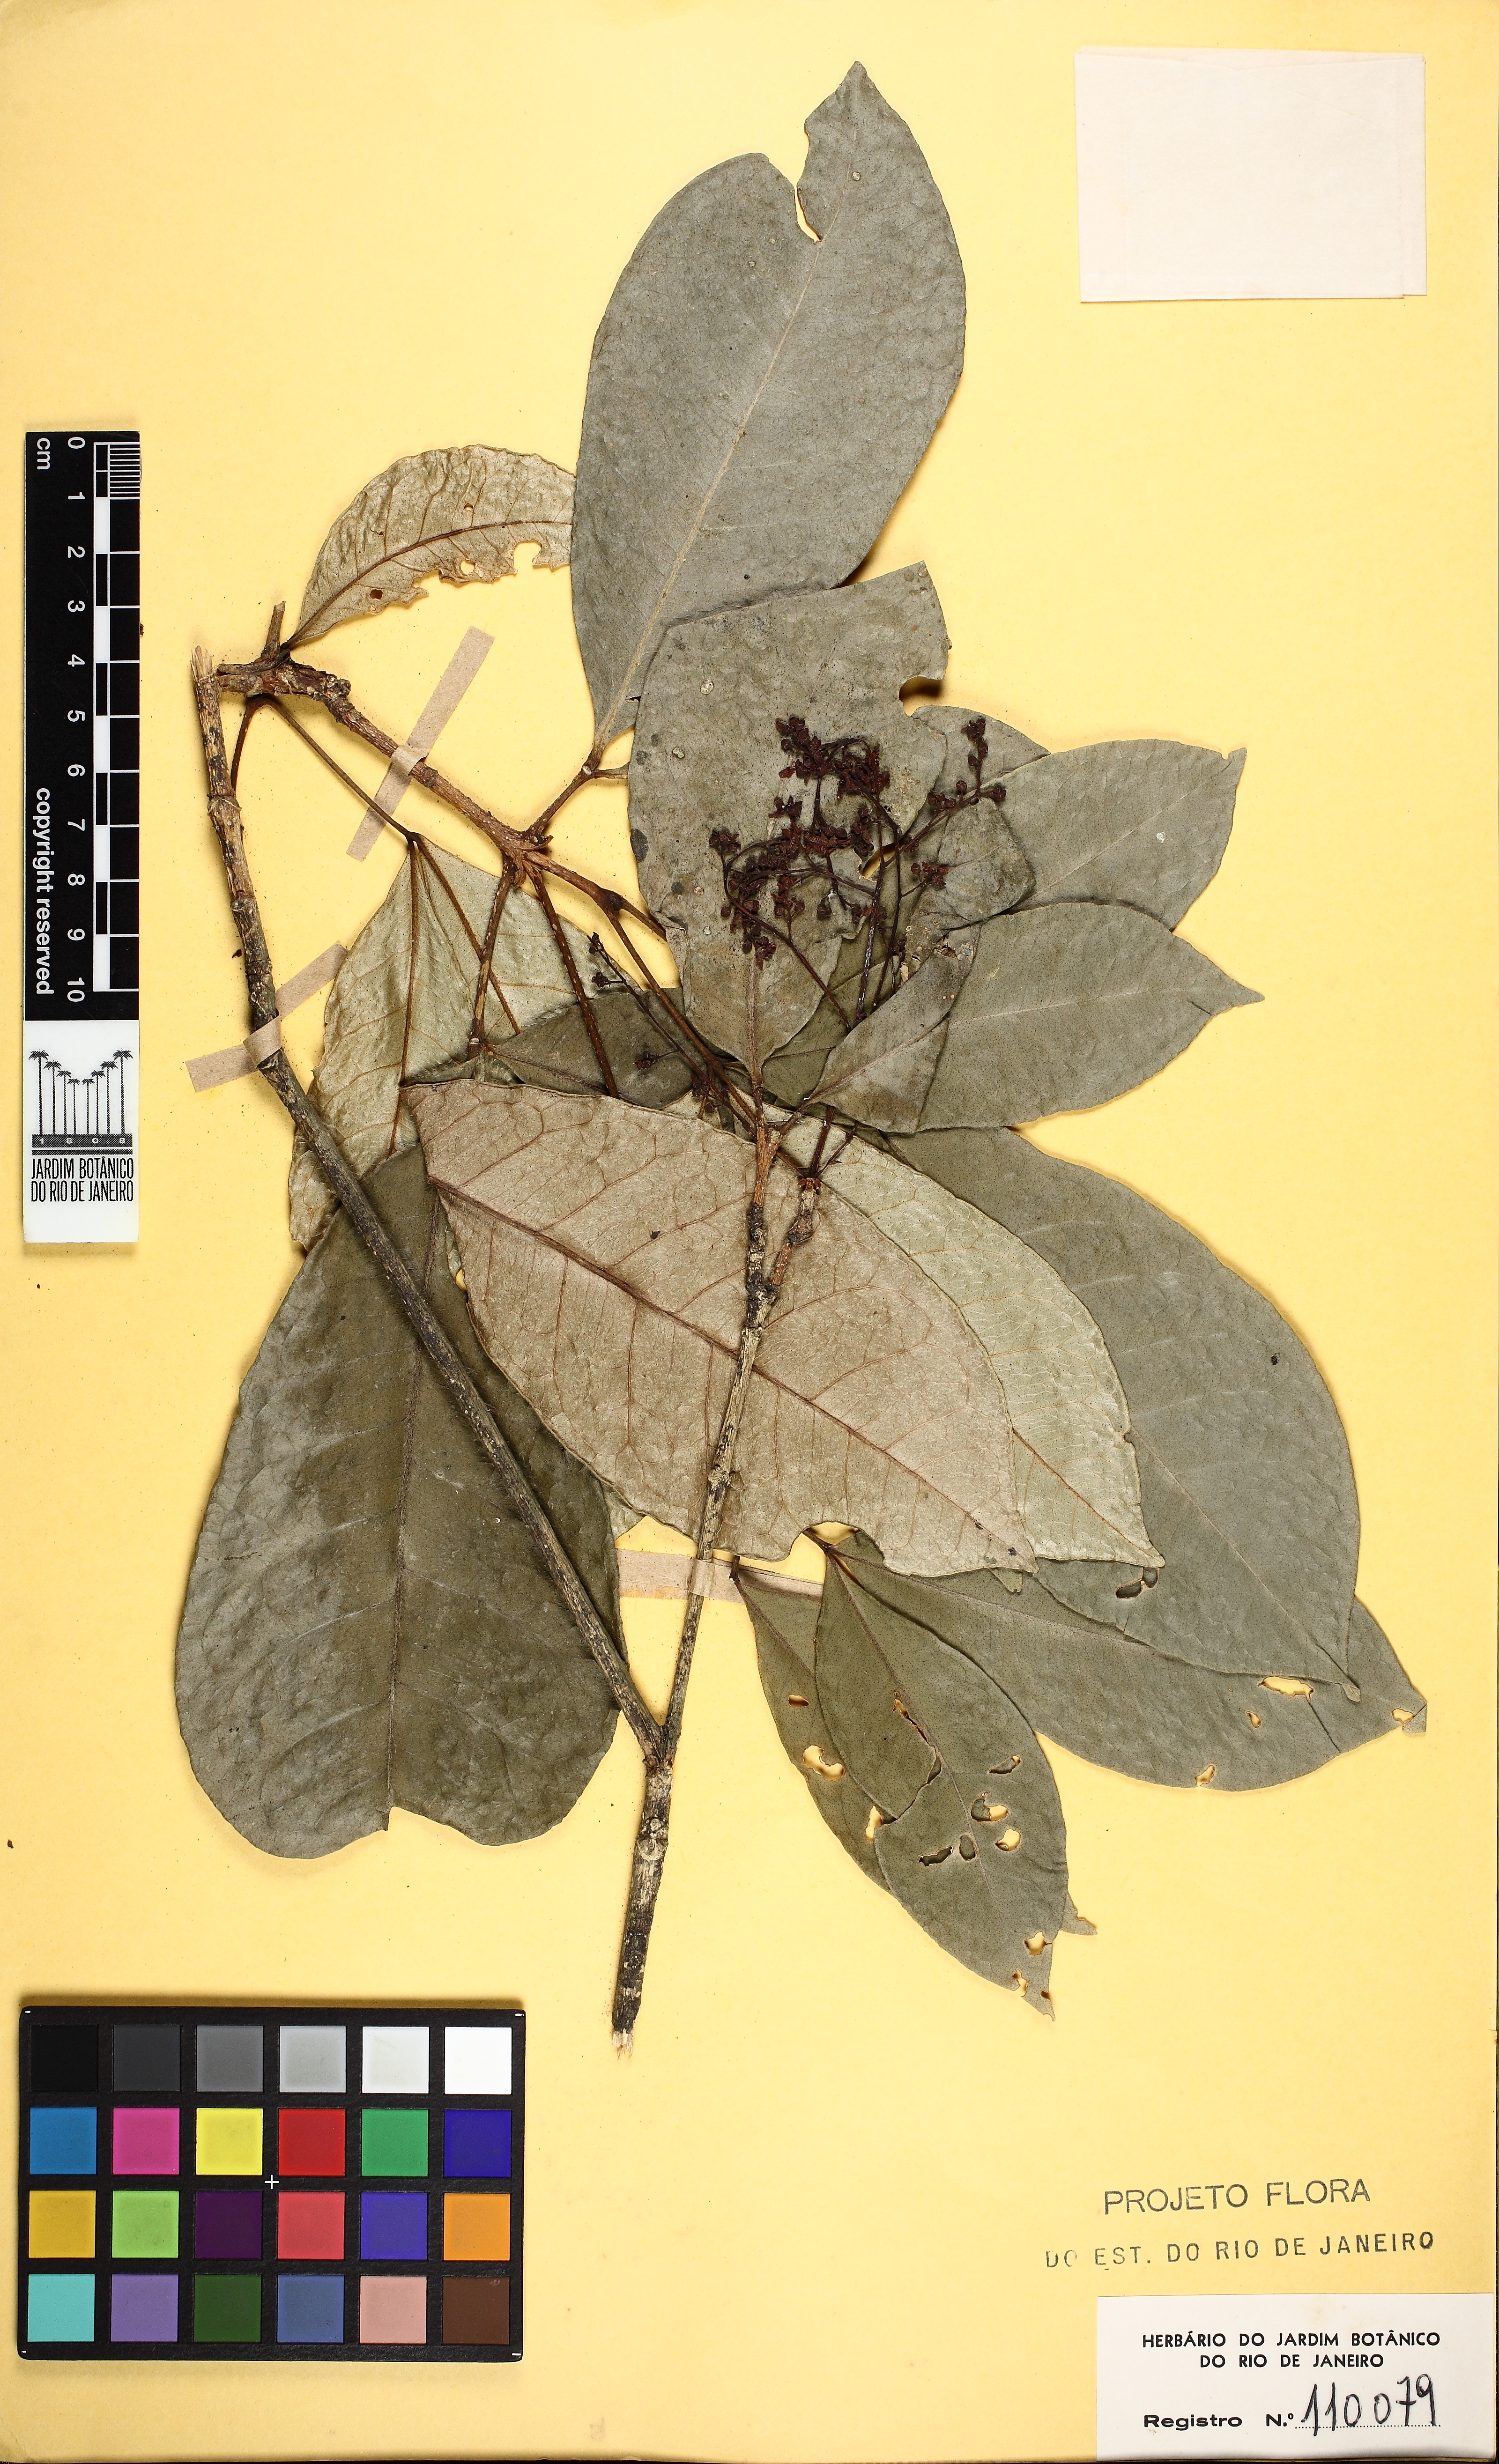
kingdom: Plantae
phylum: Tracheophyta
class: Magnoliopsida
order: Sapindales
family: Rutaceae
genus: Metrodorea
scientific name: Metrodorea nigra
